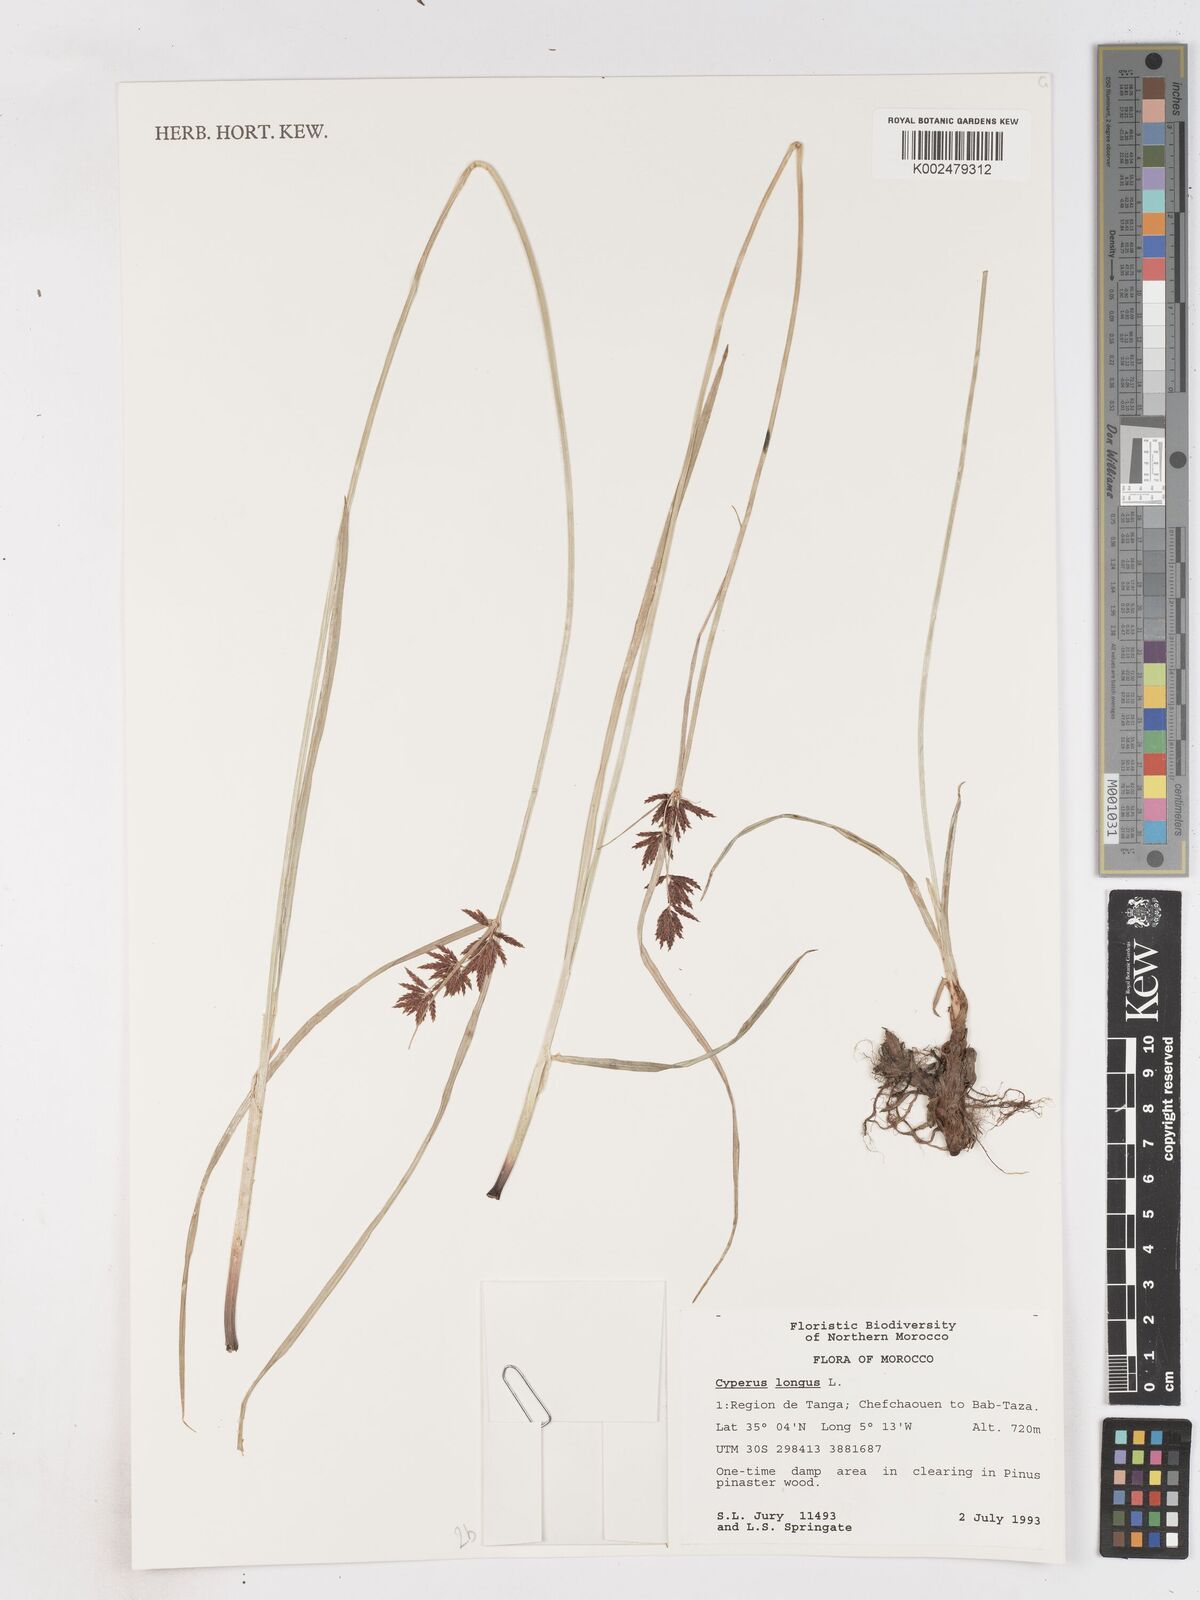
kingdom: Plantae
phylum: Tracheophyta
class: Liliopsida
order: Poales
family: Cyperaceae
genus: Cyperus
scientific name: Cyperus longus
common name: Galingale
